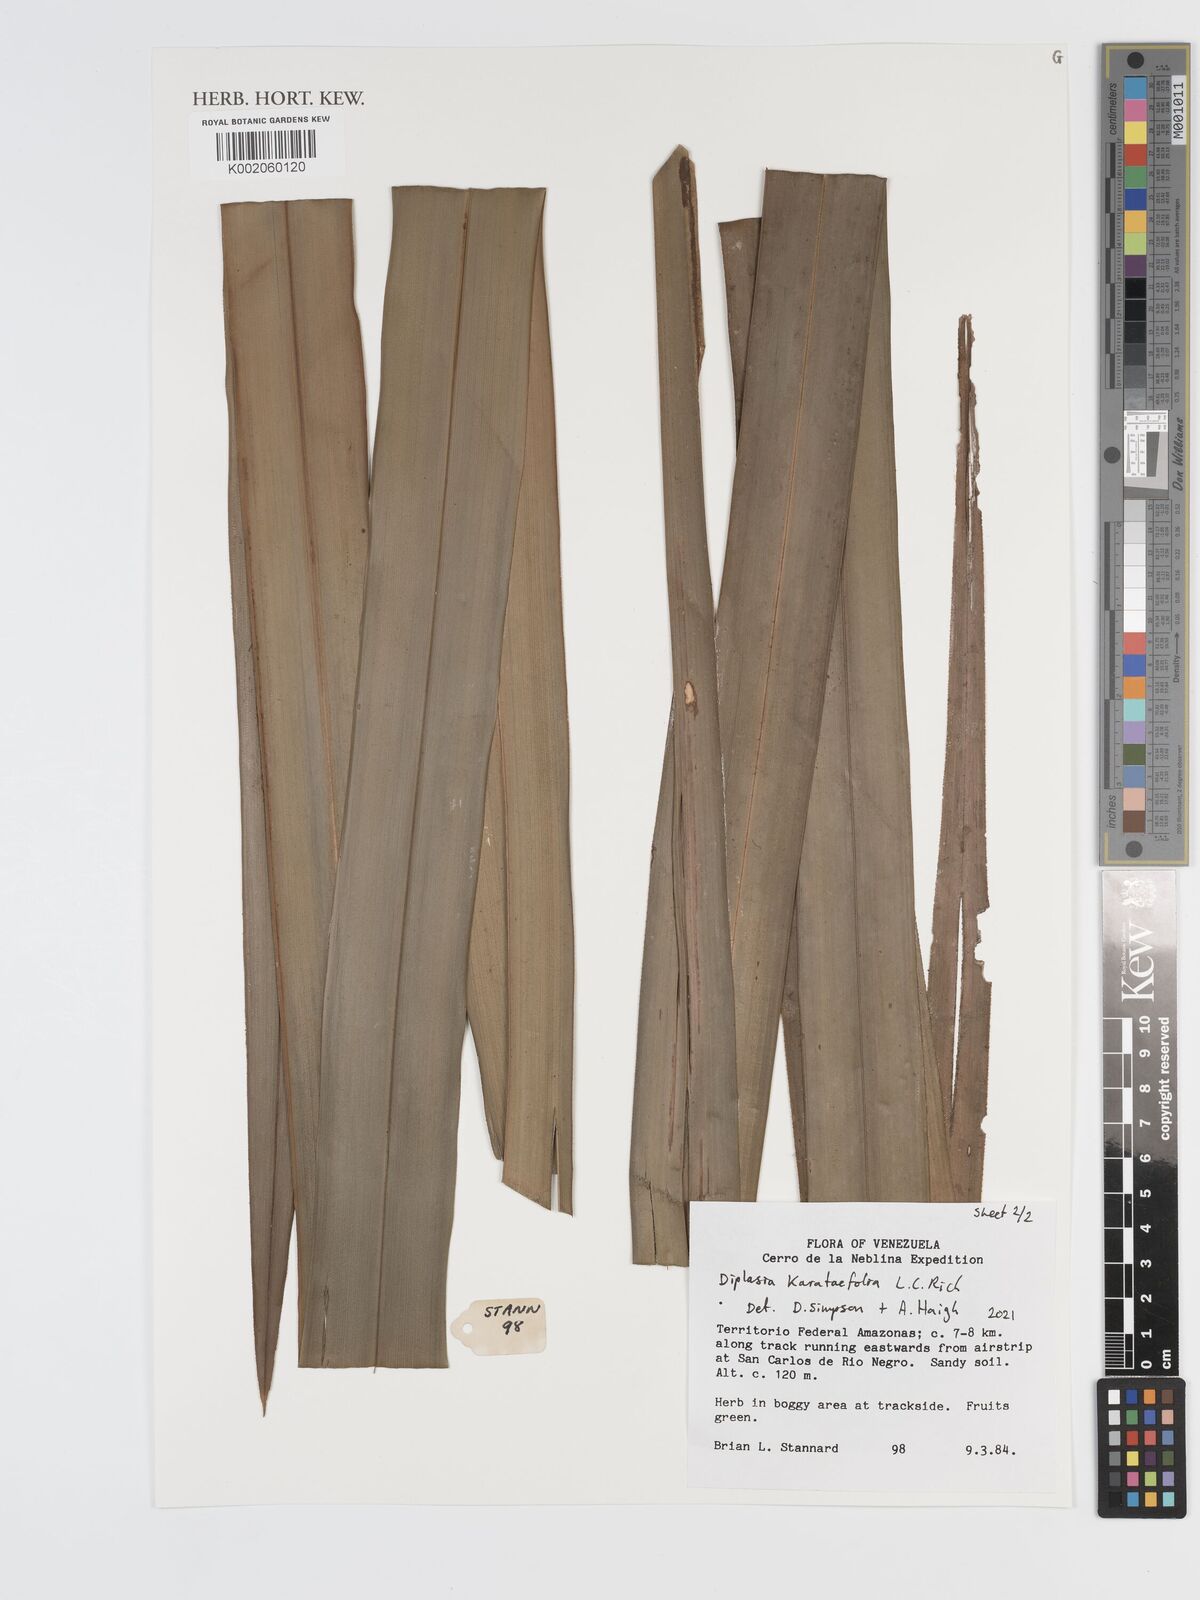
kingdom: Plantae
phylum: Tracheophyta
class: Liliopsida
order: Poales
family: Cyperaceae
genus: Diplasia
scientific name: Diplasia karatifolia
